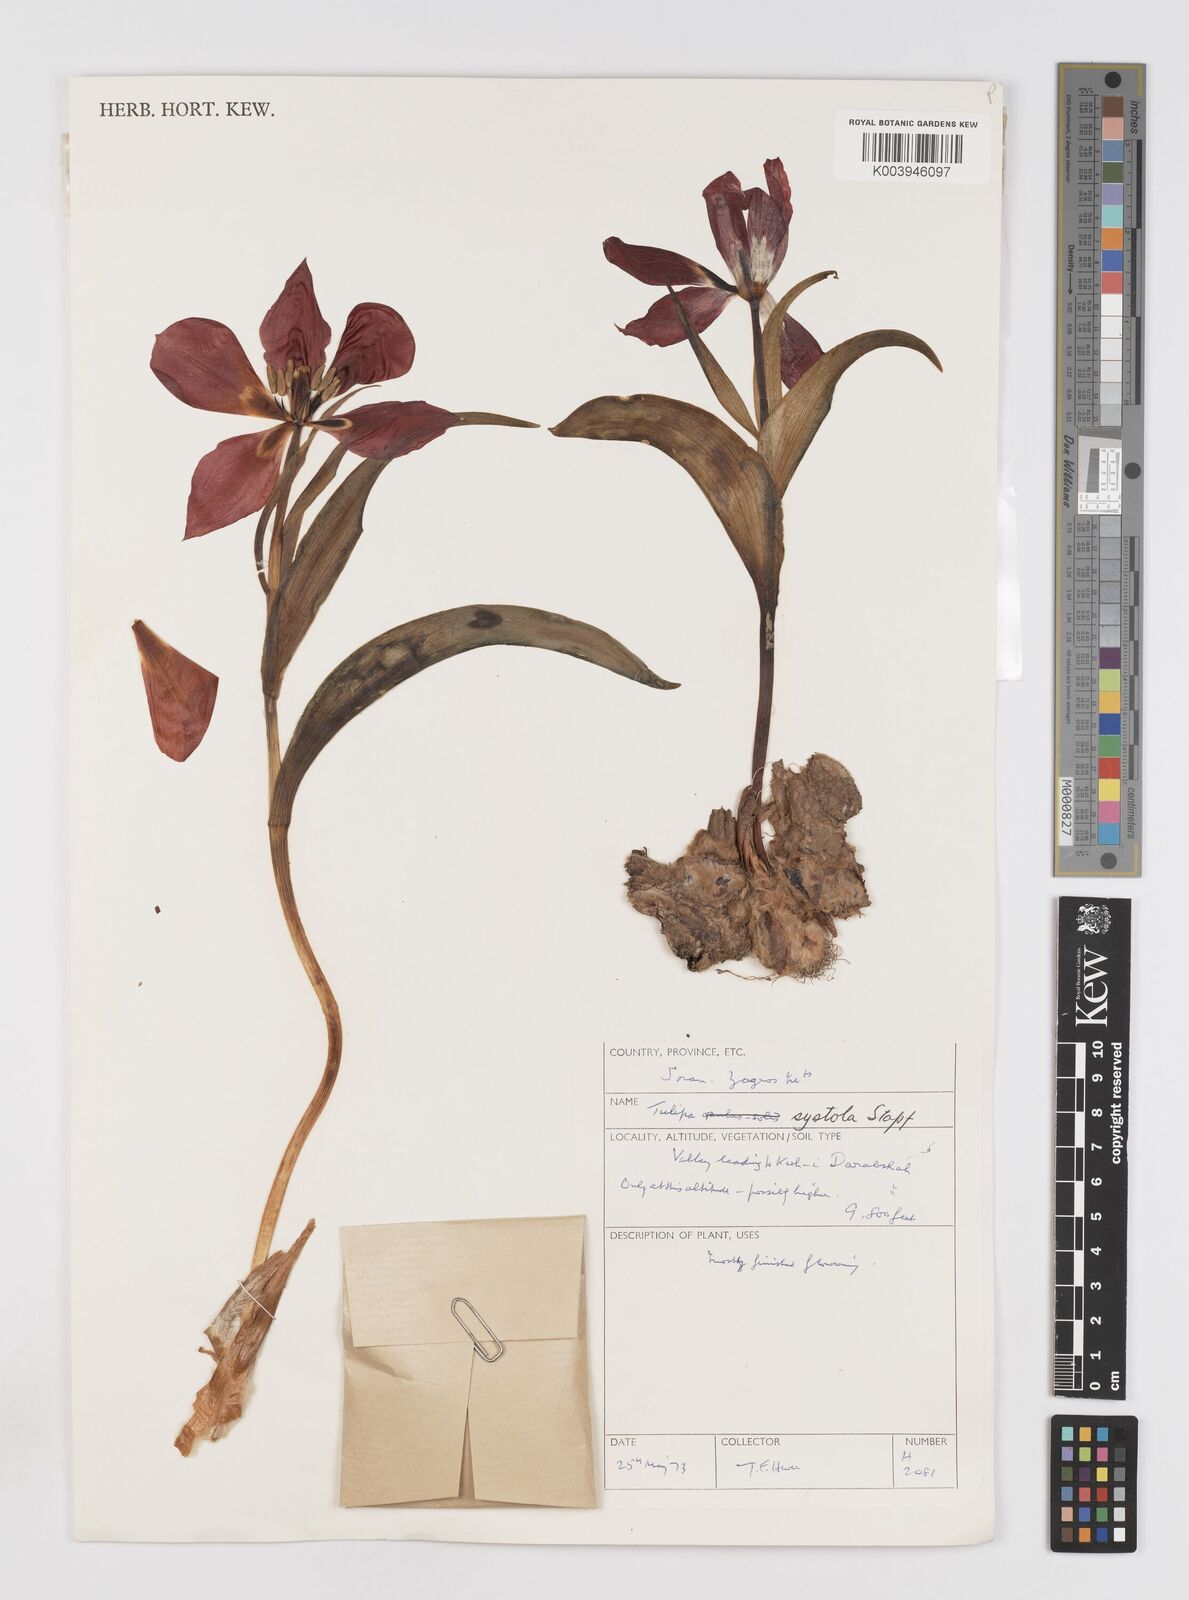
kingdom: Plantae
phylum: Tracheophyta
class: Liliopsida
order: Liliales
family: Liliaceae
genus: Tulipa
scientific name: Tulipa systola
